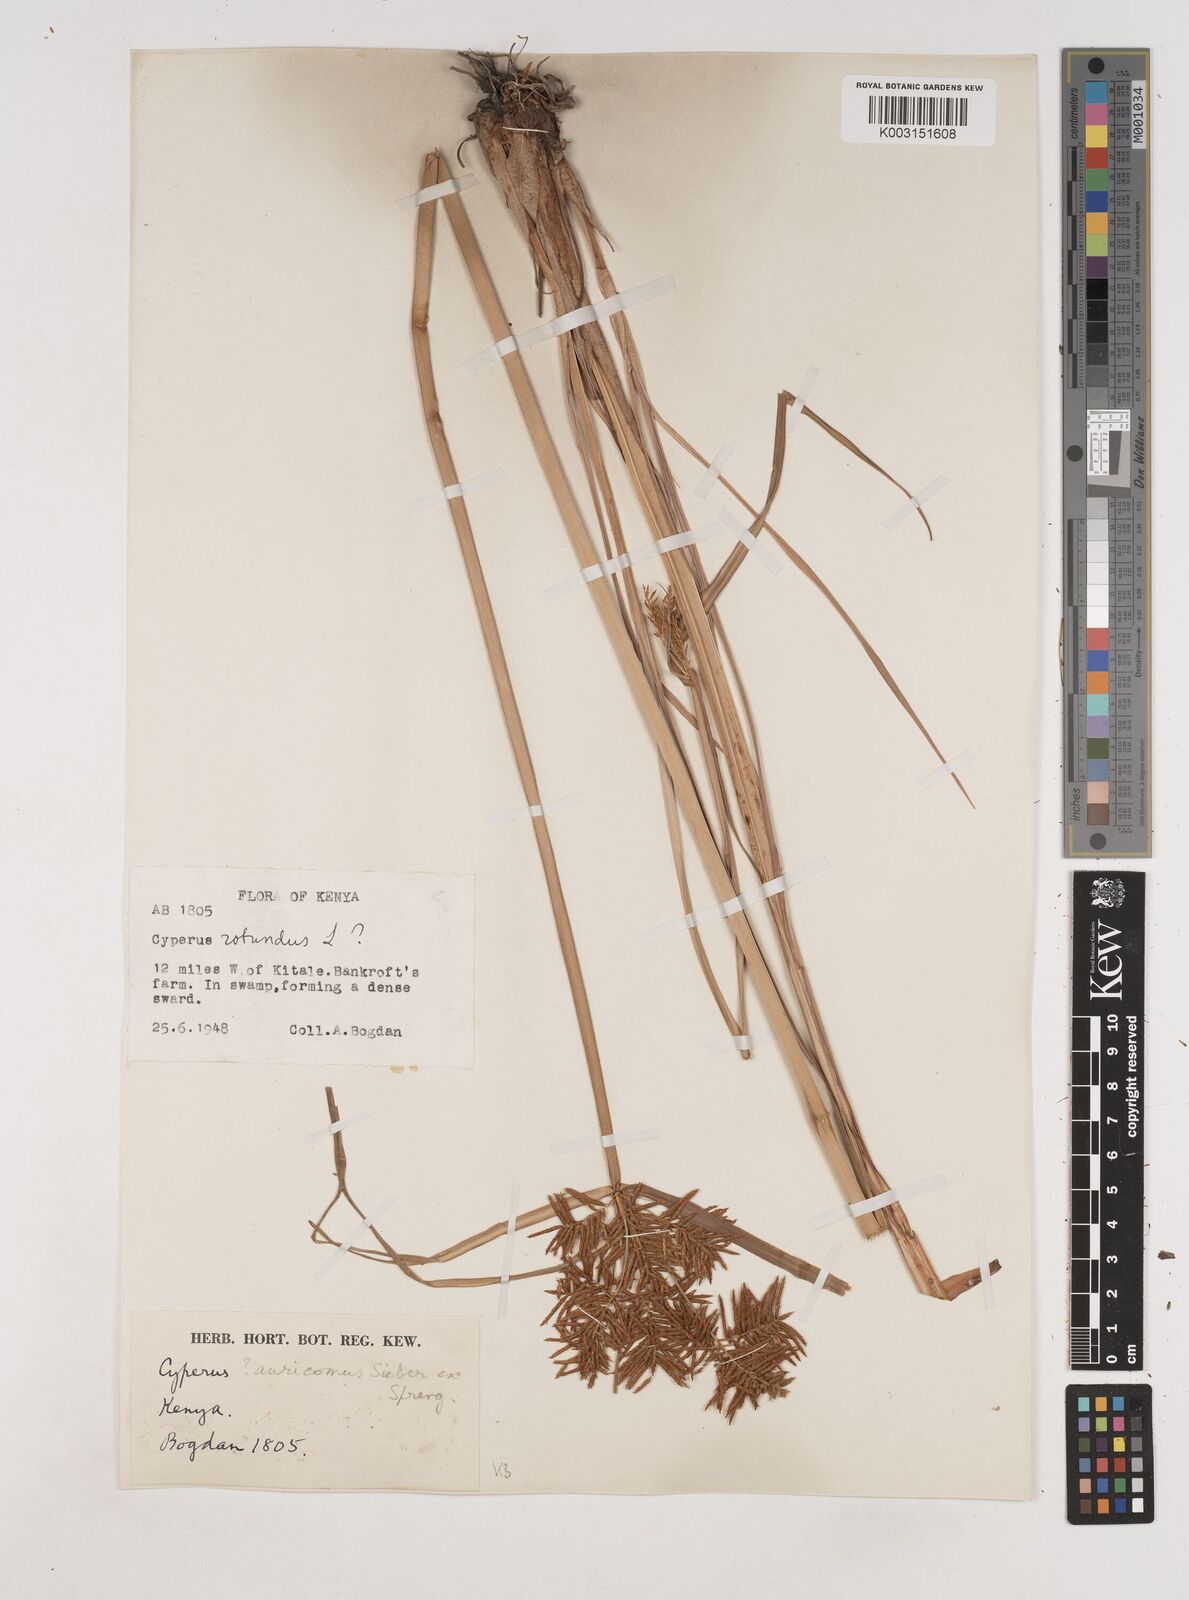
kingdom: Plantae
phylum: Tracheophyta
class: Liliopsida
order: Poales
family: Cyperaceae
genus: Cyperus
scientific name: Cyperus digitatus
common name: Finger flatsedge
